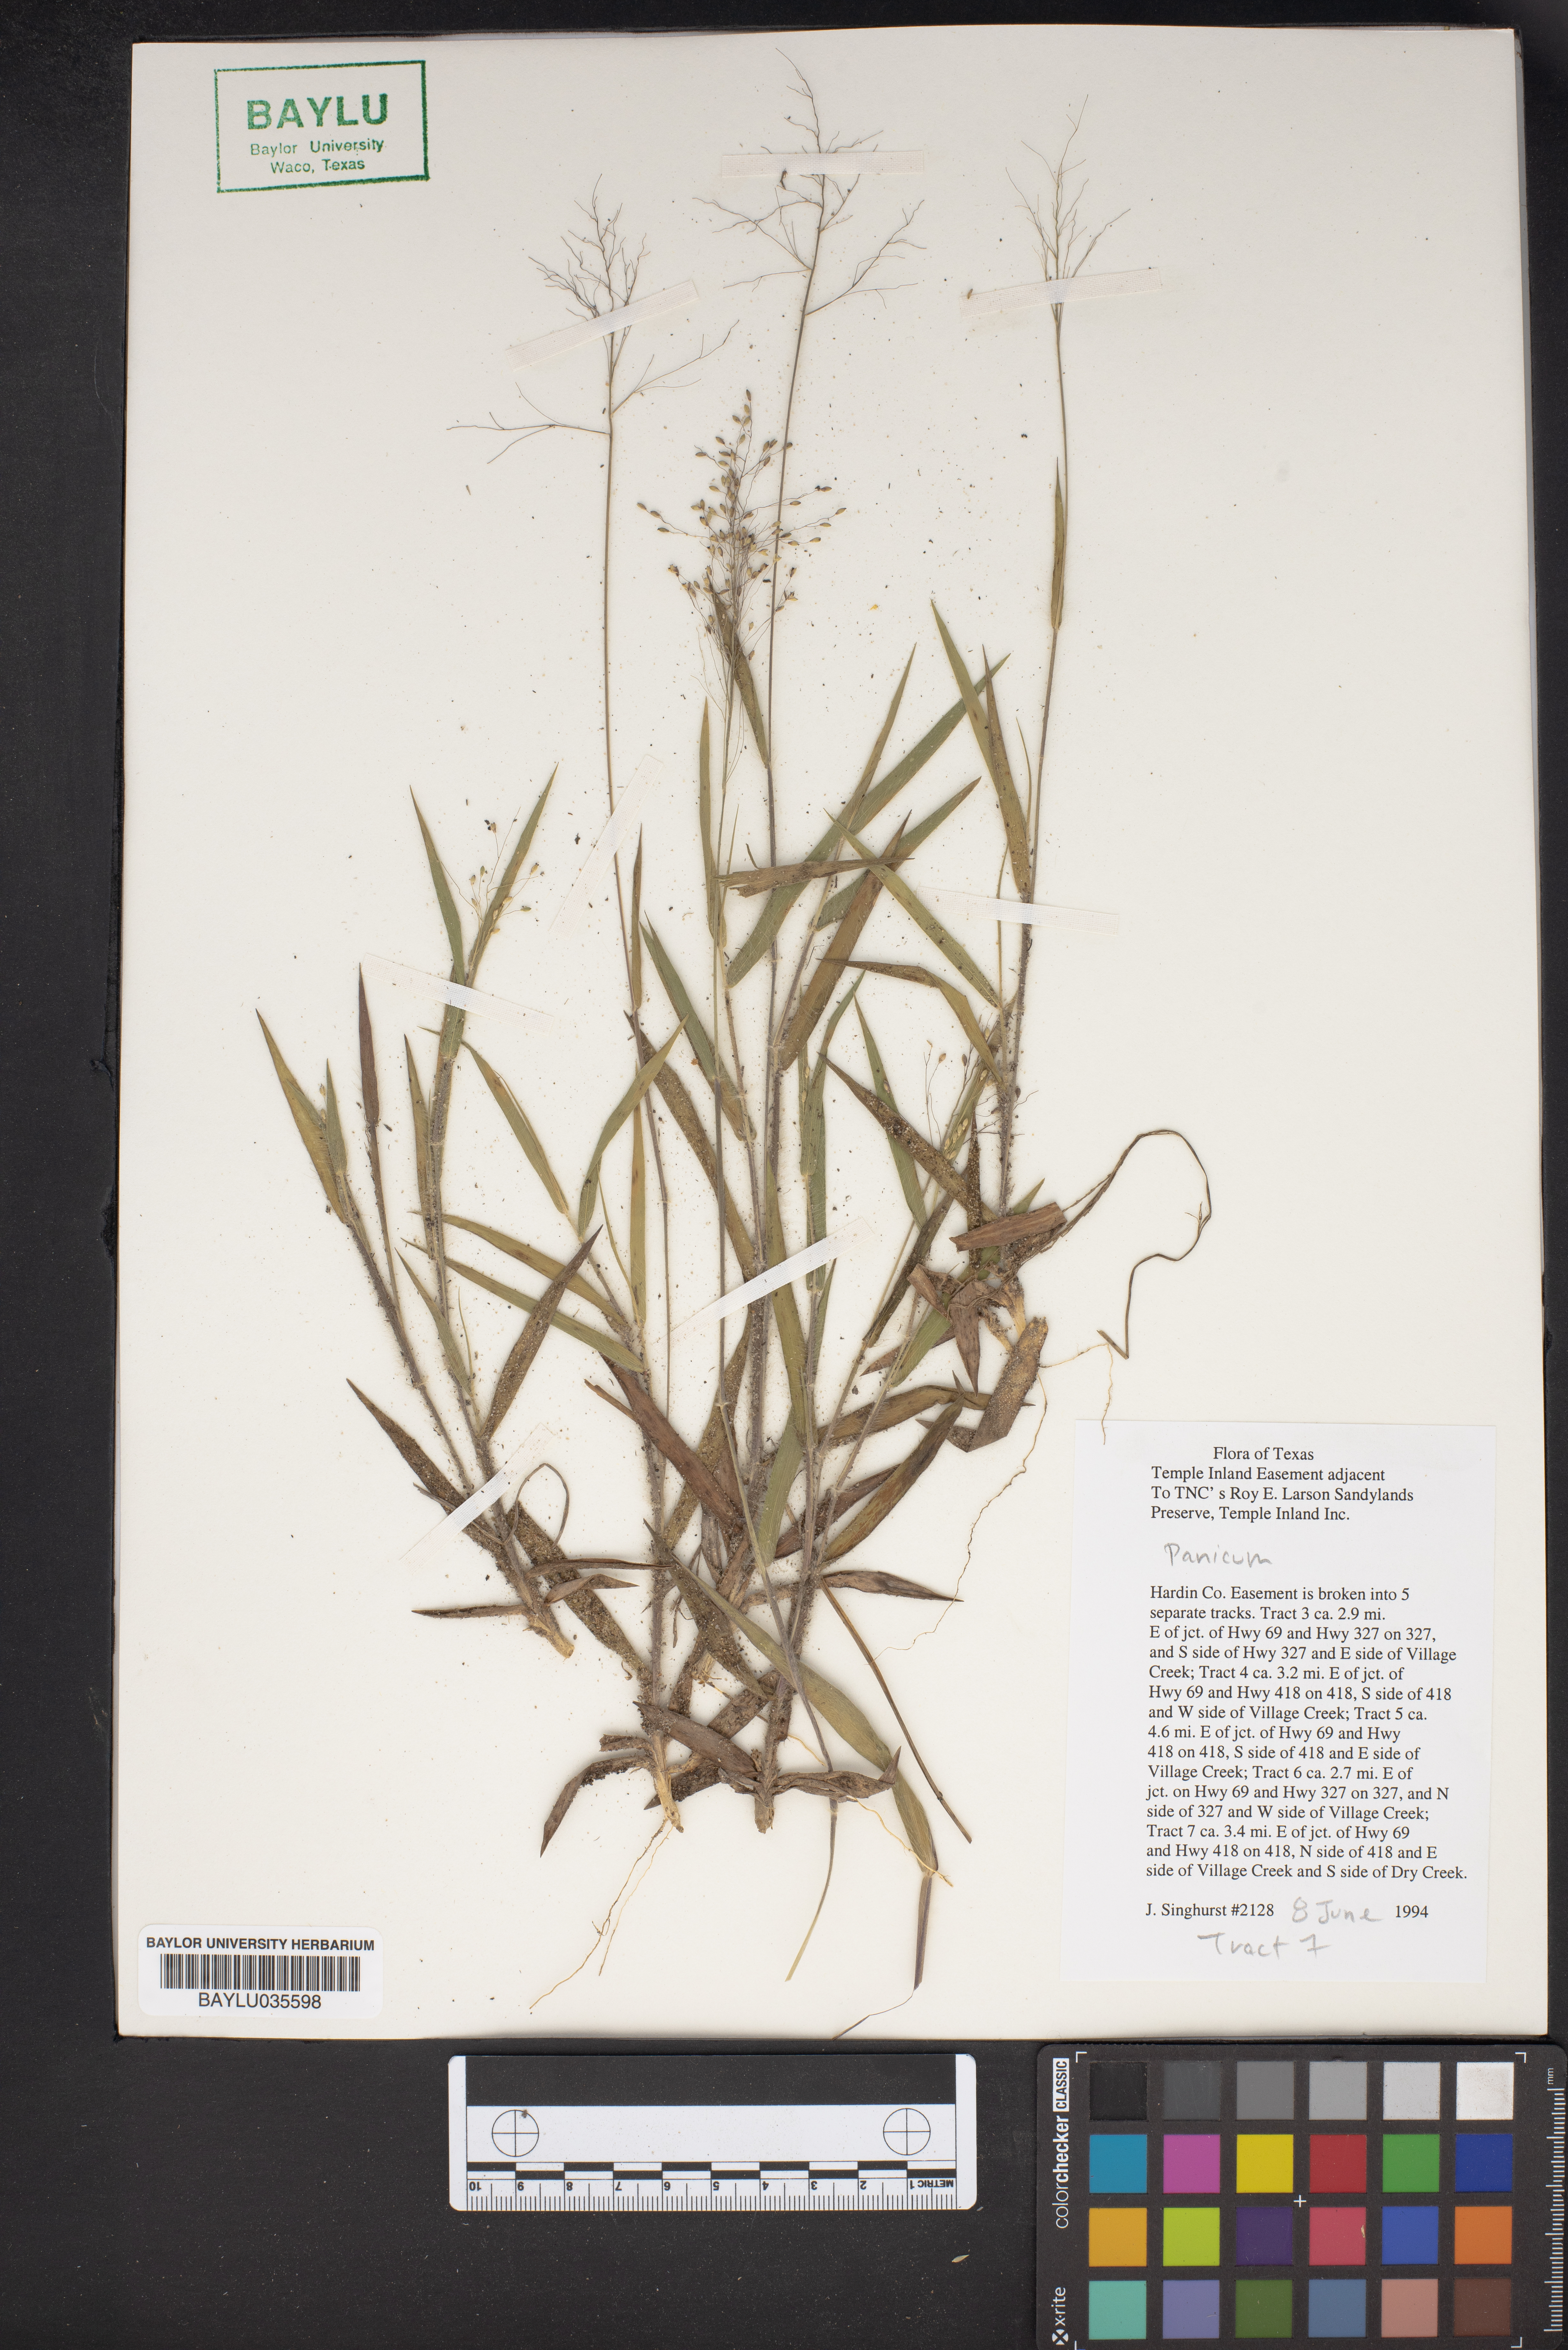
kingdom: Plantae
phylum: Tracheophyta
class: Liliopsida
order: Poales
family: Poaceae
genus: Panicum
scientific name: Panicum
